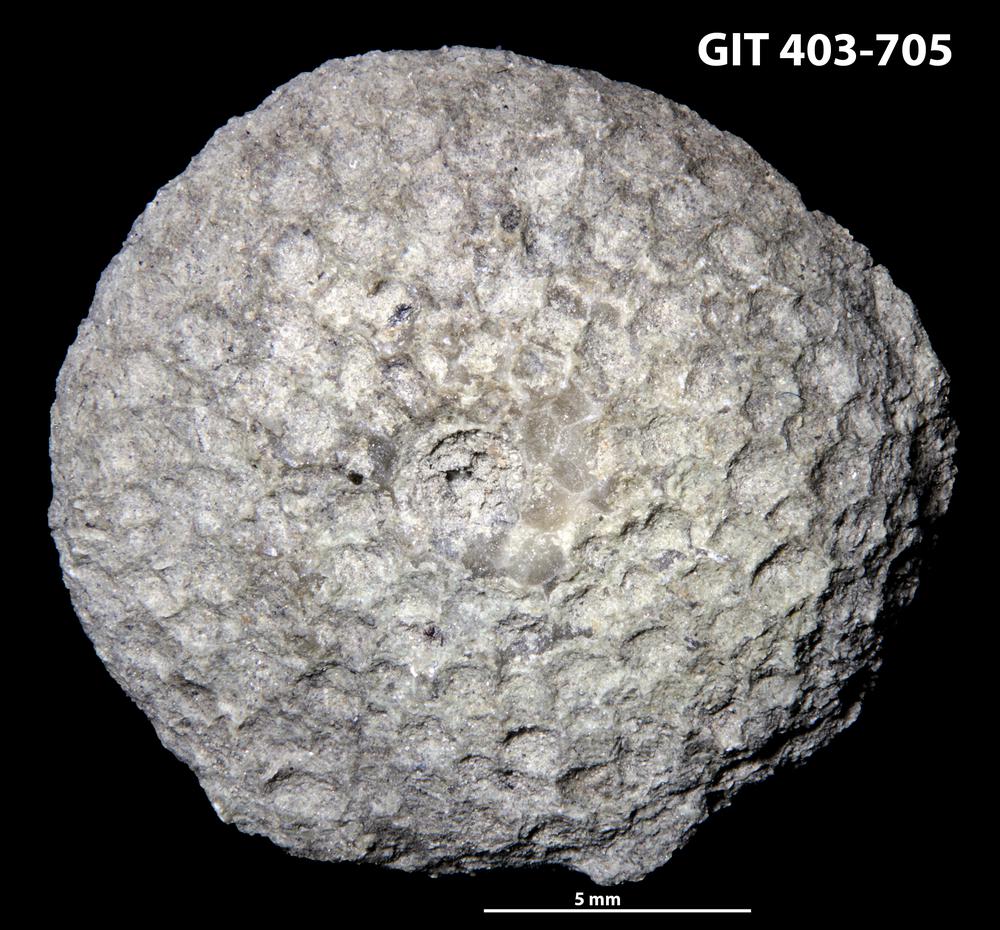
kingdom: Animalia
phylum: Cnidaria
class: Anthozoa
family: Favositidae
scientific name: Favositidae
